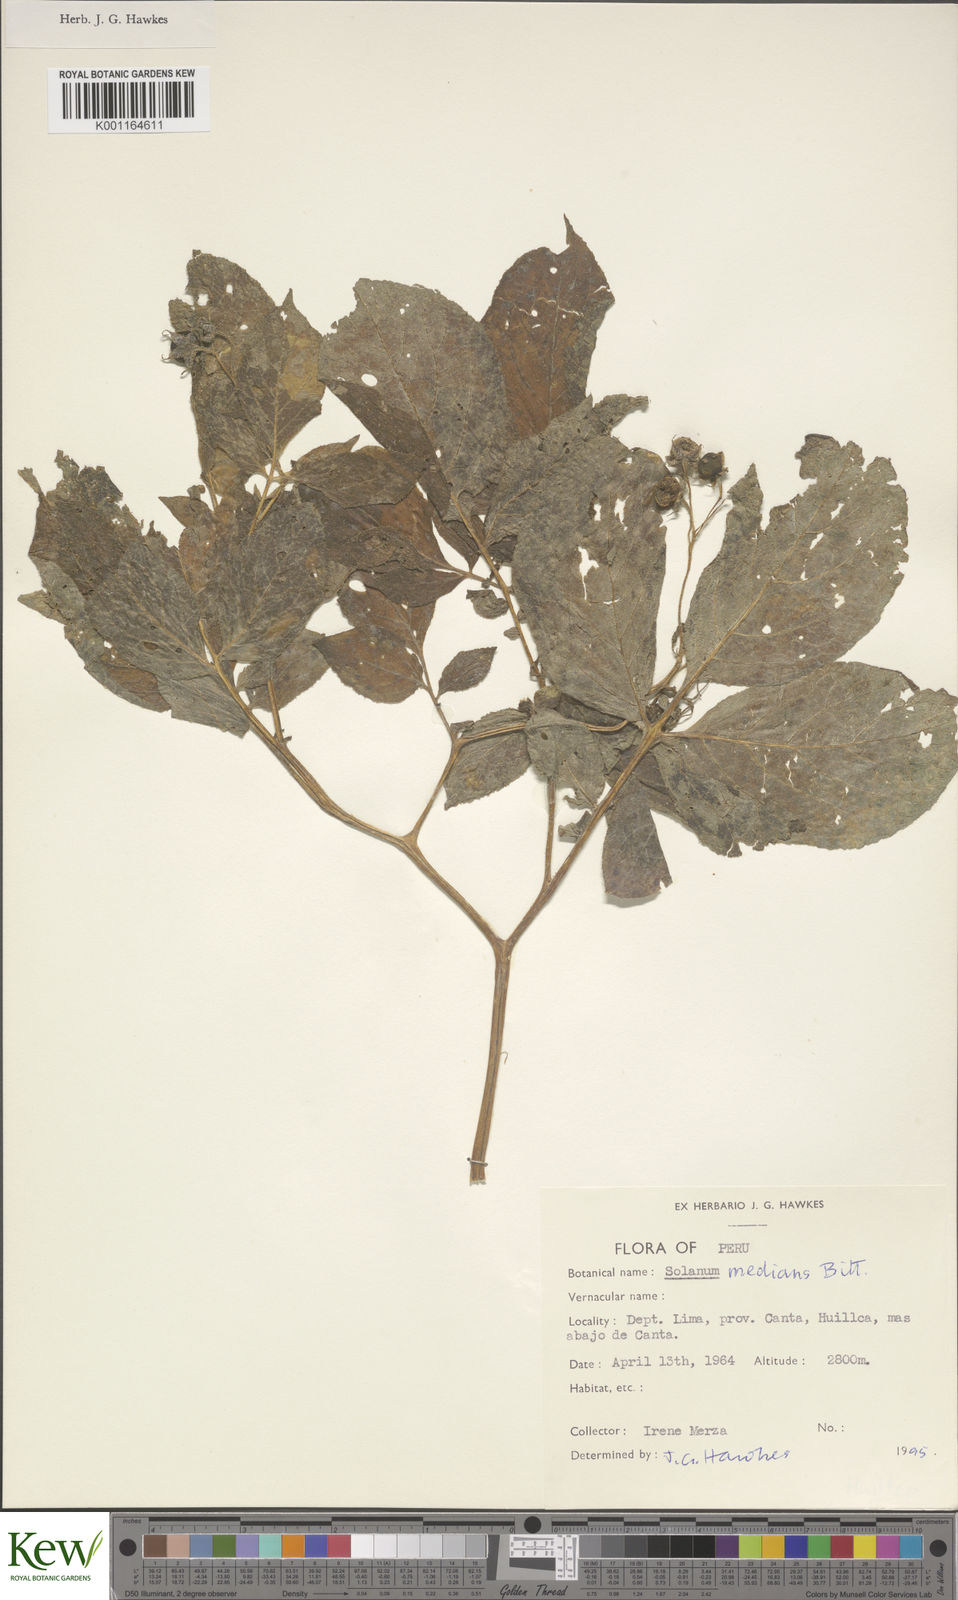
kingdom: Plantae
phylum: Tracheophyta
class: Magnoliopsida
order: Solanales
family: Solanaceae
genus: Solanum
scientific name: Solanum medians
